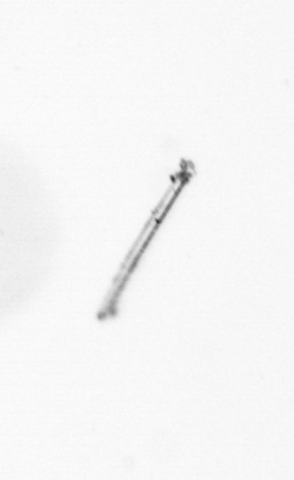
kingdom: Chromista
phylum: Ochrophyta
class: Bacillariophyceae
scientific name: Bacillariophyceae
